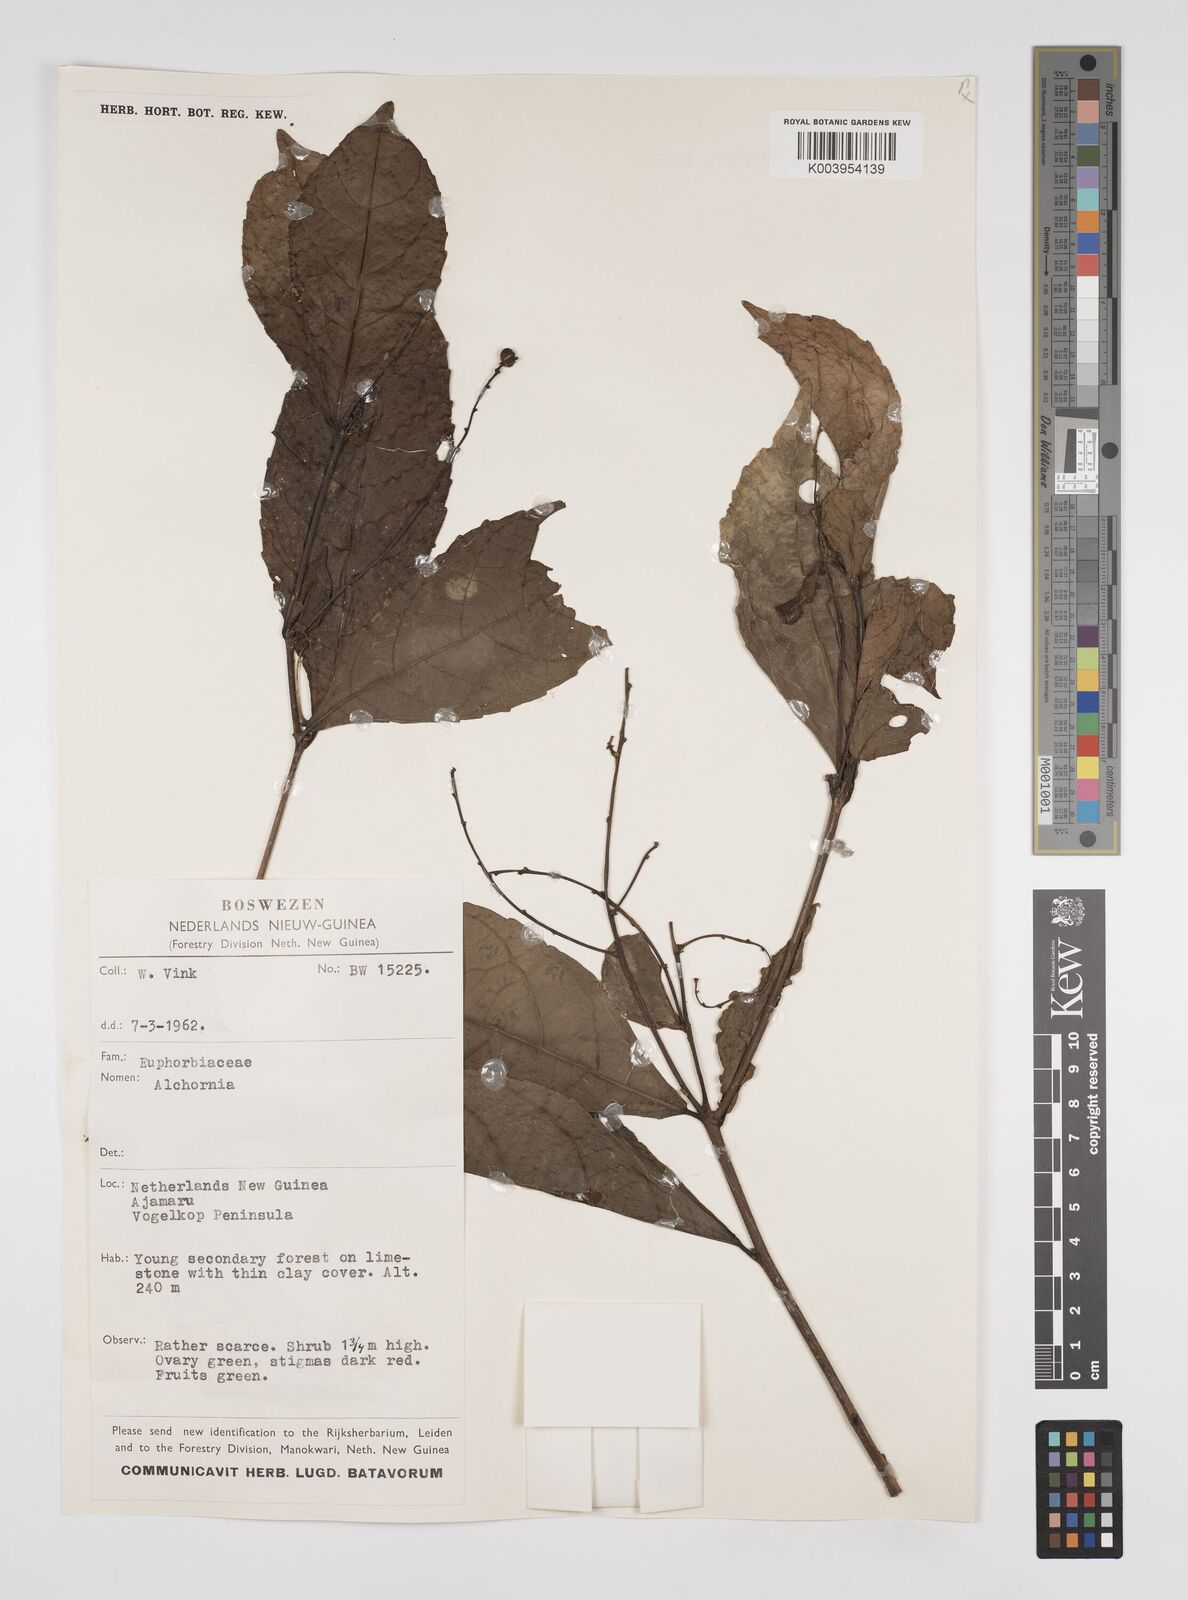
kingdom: Plantae
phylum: Tracheophyta
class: Magnoliopsida
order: Malpighiales
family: Euphorbiaceae
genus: Alchornea
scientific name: Alchornea rugosa
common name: Alchorntree
